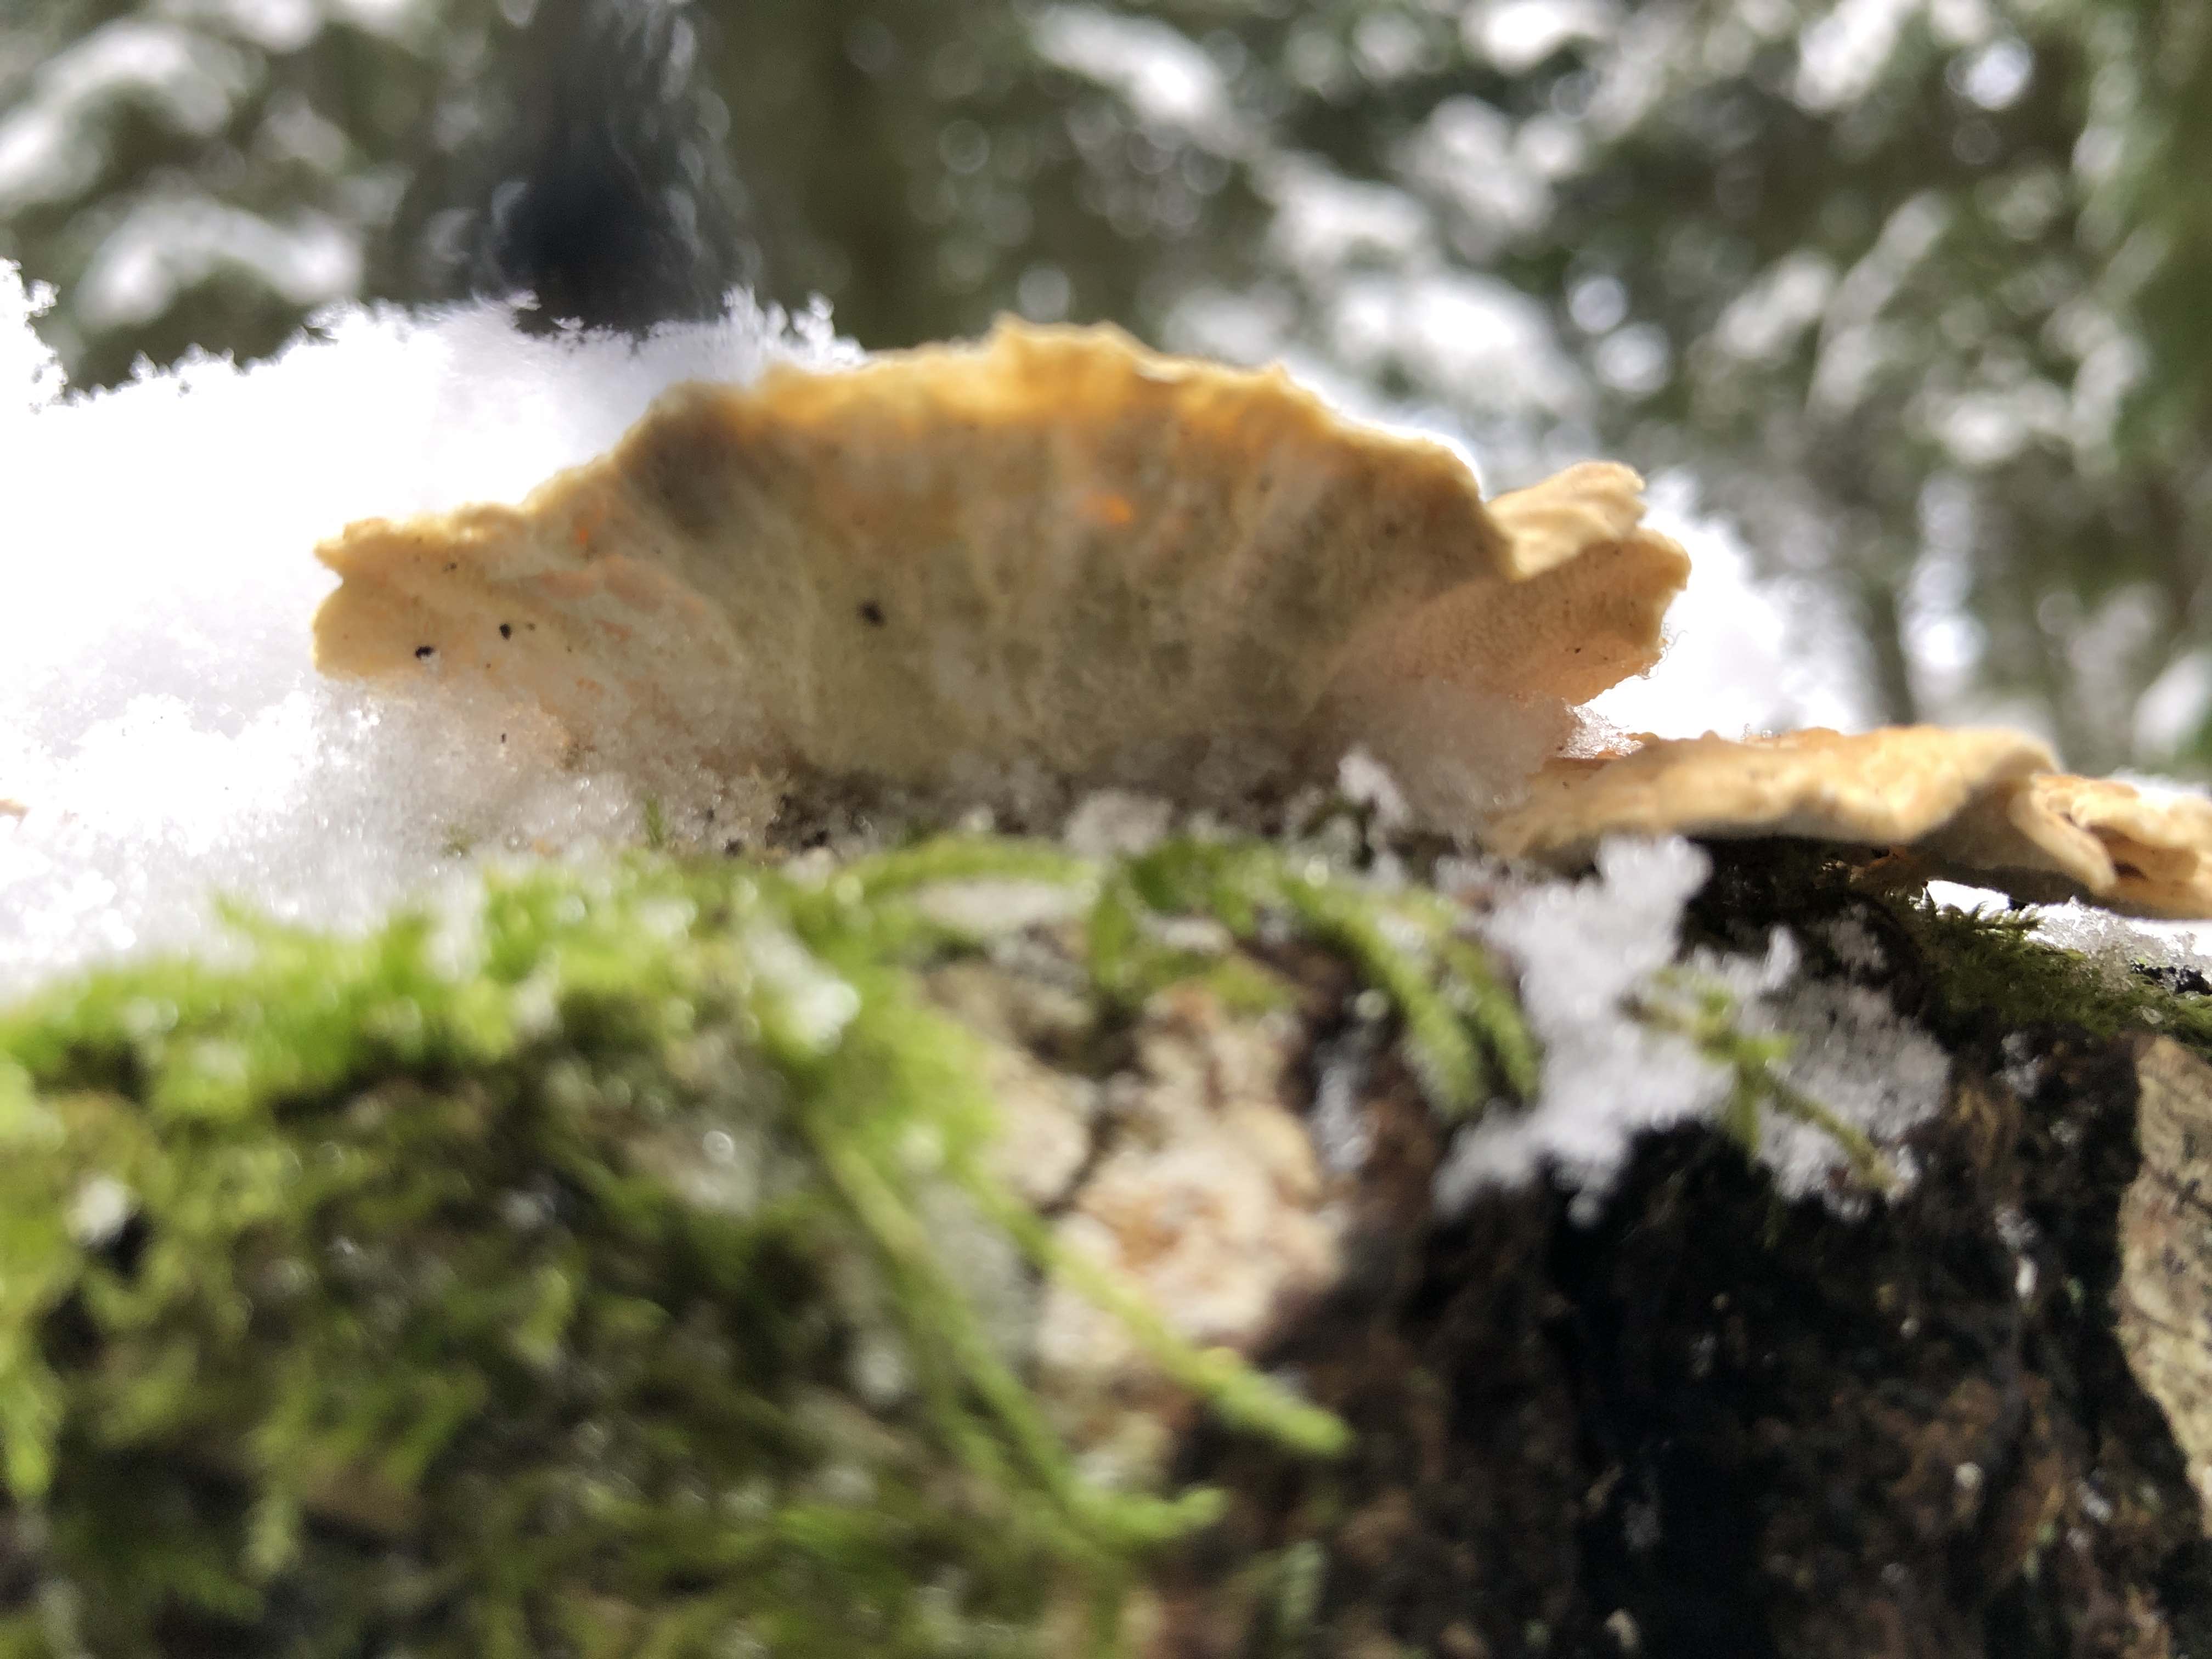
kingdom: Fungi
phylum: Basidiomycota
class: Agaricomycetes
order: Polyporales
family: Polyporaceae
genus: Trametes
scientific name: Trametes ochracea
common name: bæltet læderporesvamp
